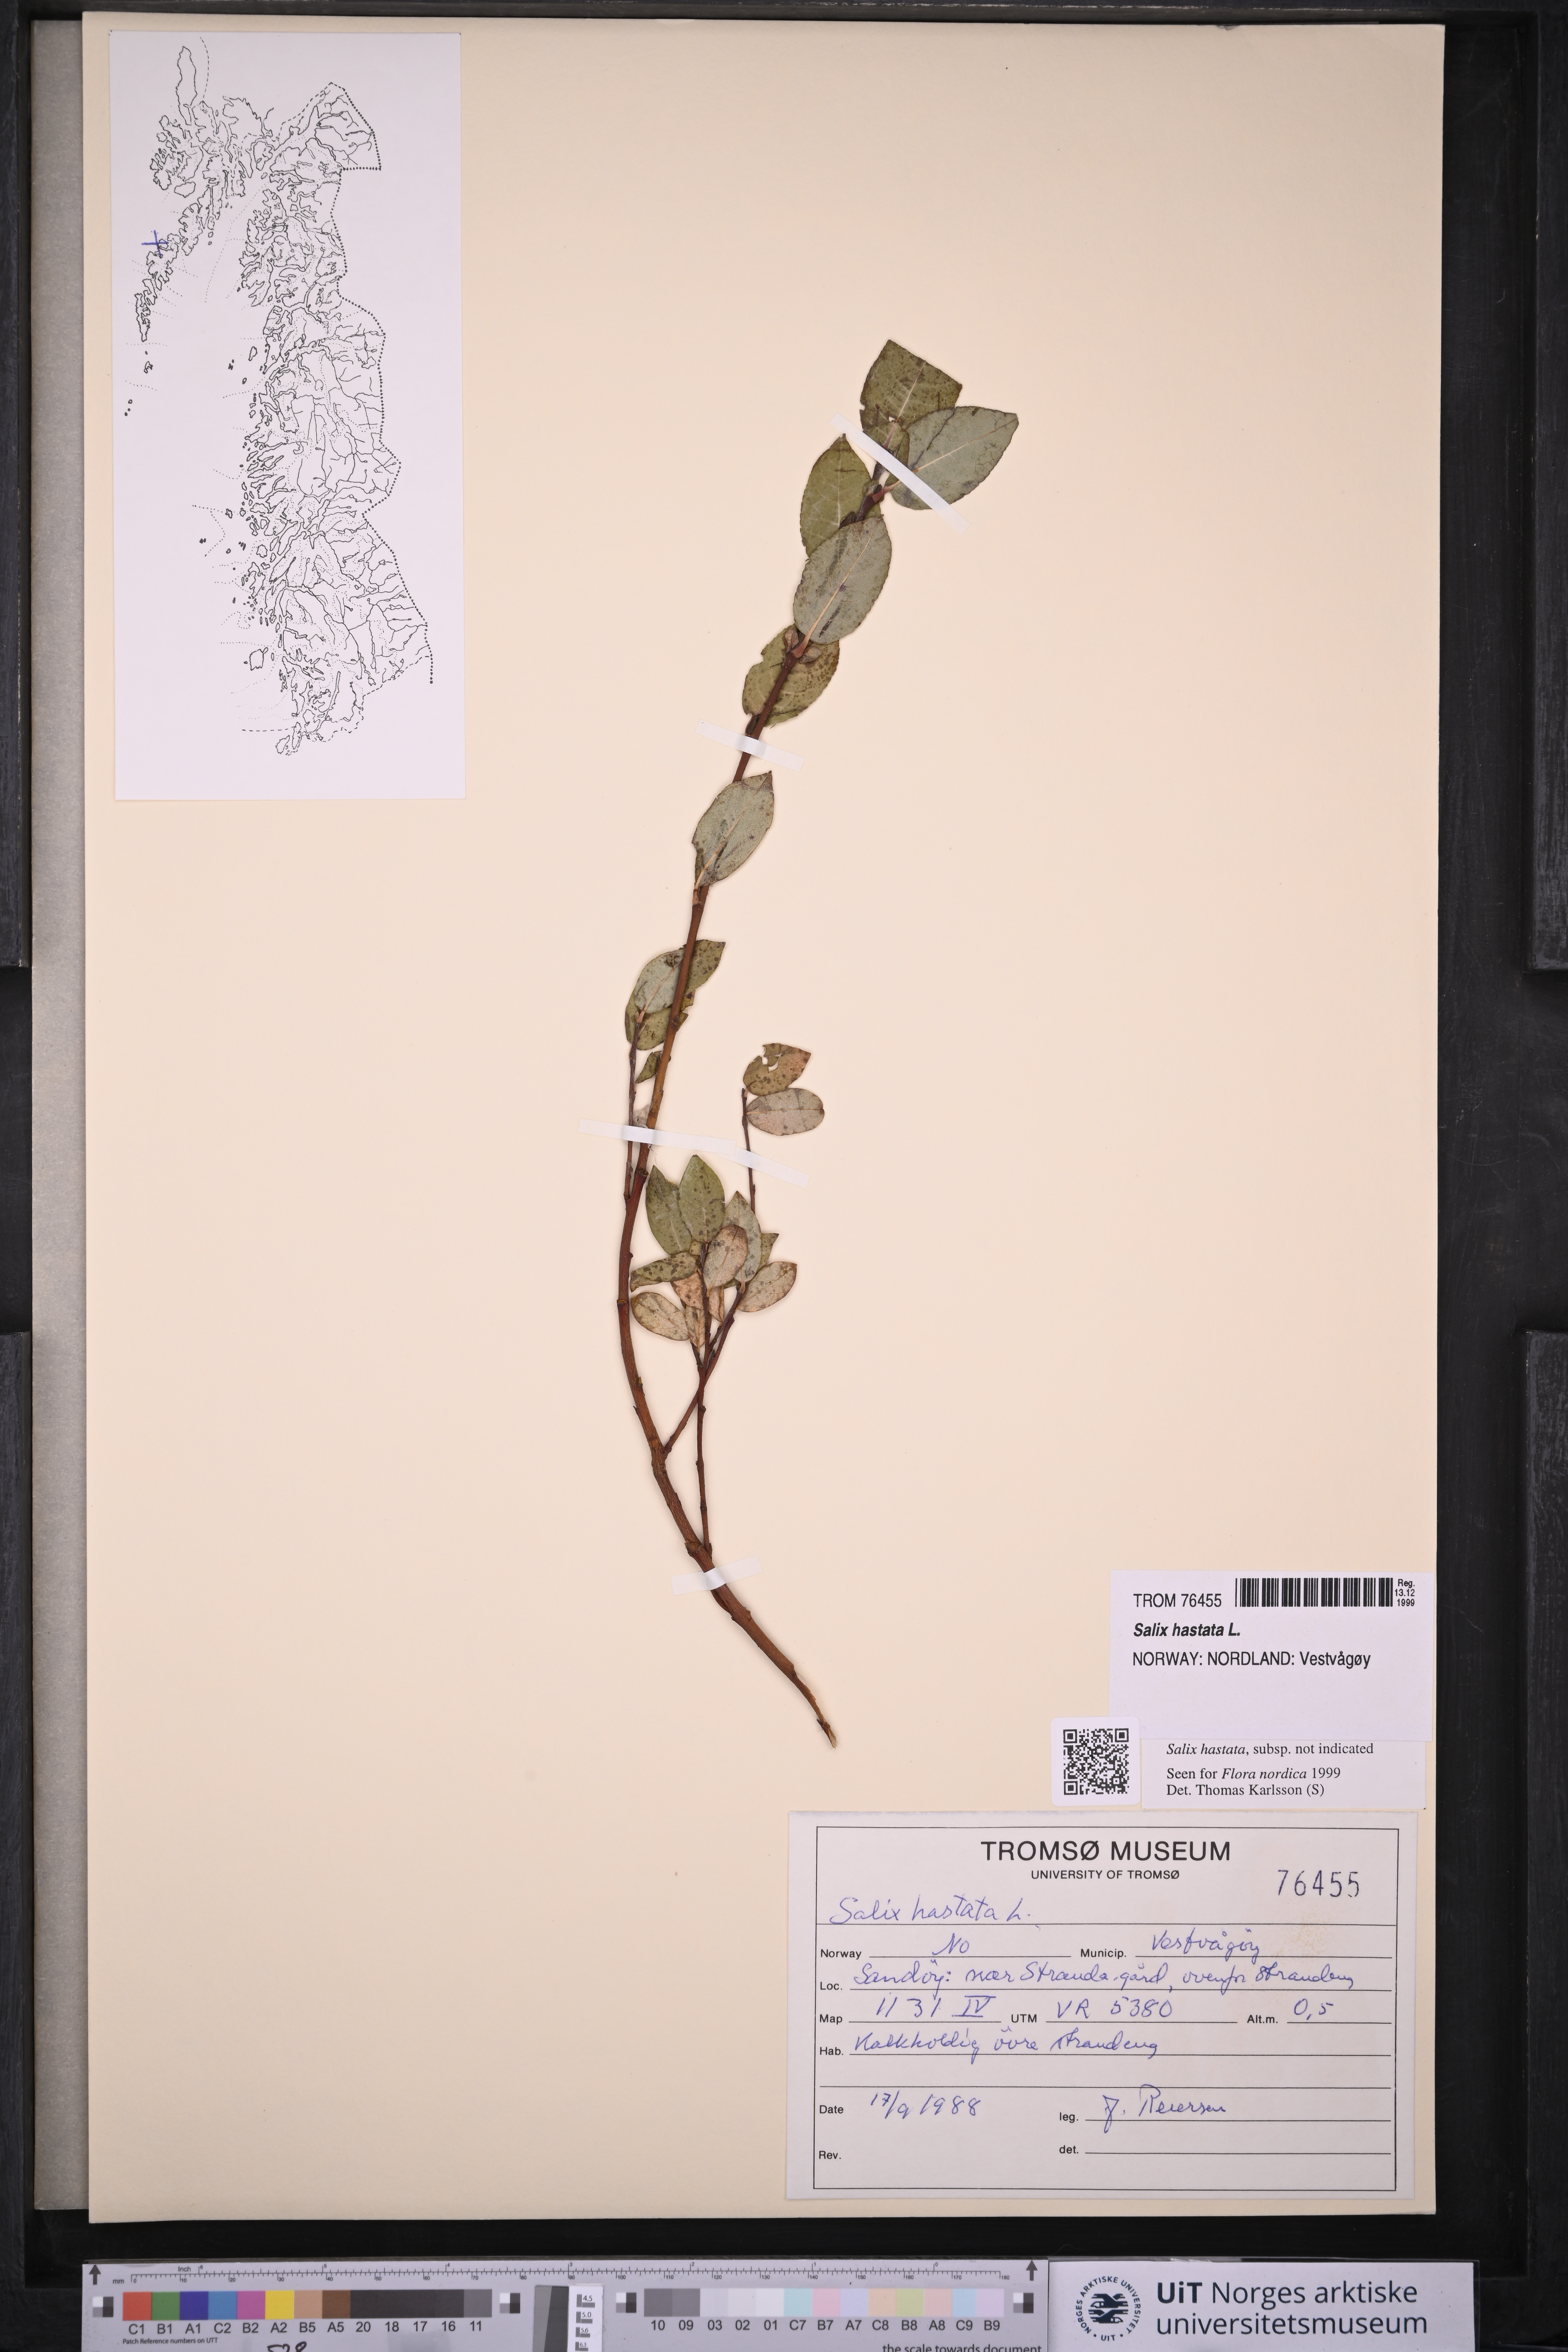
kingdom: Plantae
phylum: Tracheophyta
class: Magnoliopsida
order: Malpighiales
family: Salicaceae
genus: Salix
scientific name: Salix hastata
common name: Halberd willow
